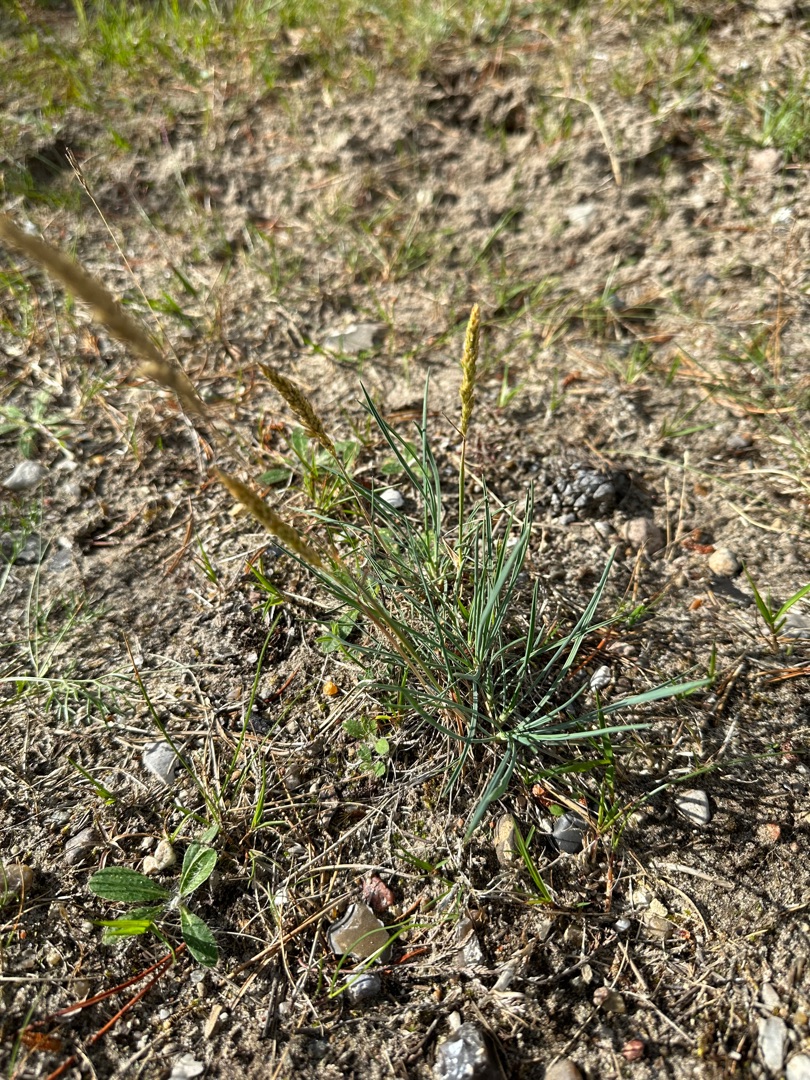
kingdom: Plantae
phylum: Tracheophyta
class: Liliopsida
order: Poales
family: Poaceae
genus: Koeleria
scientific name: Koeleria glauca
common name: Klit-kambunke
